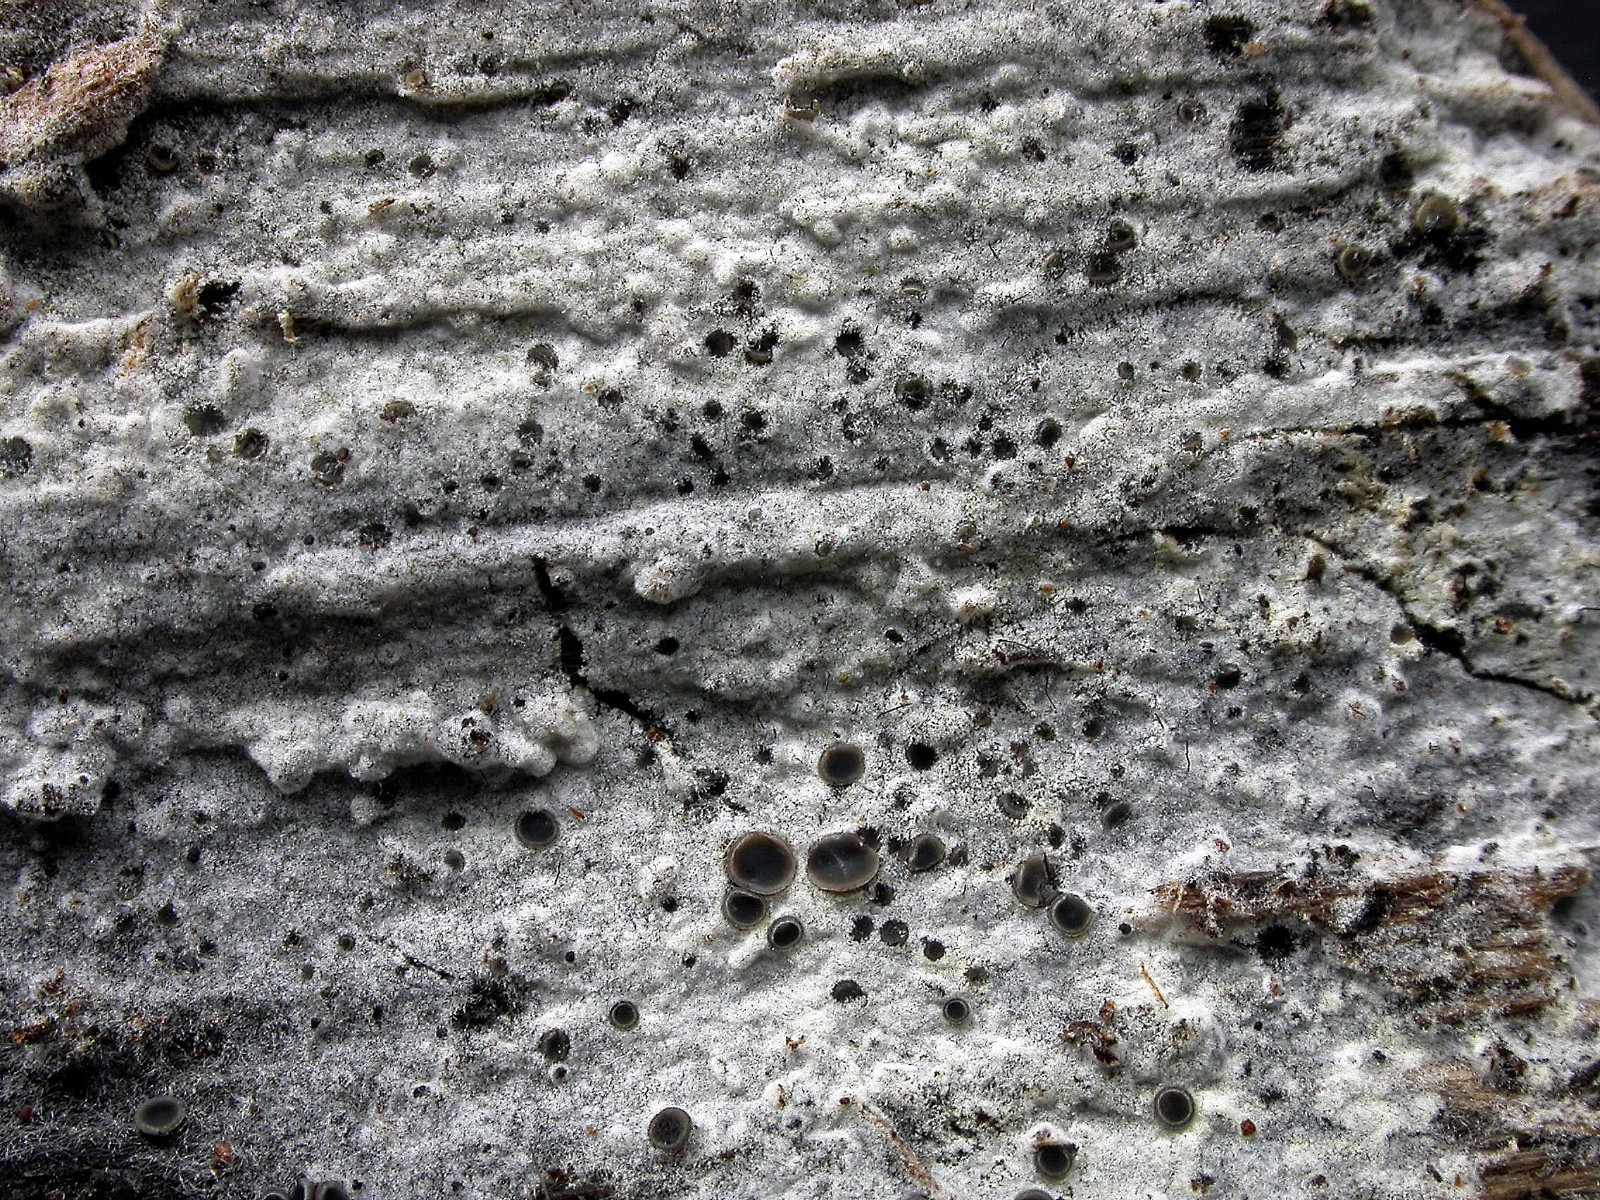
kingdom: Fungi
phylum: Basidiomycota
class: Agaricomycetes
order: Cantharellales
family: Botryobasidiaceae
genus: Botryobasidium
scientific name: Botryobasidium subcoronatum
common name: almindelig spindhinde
